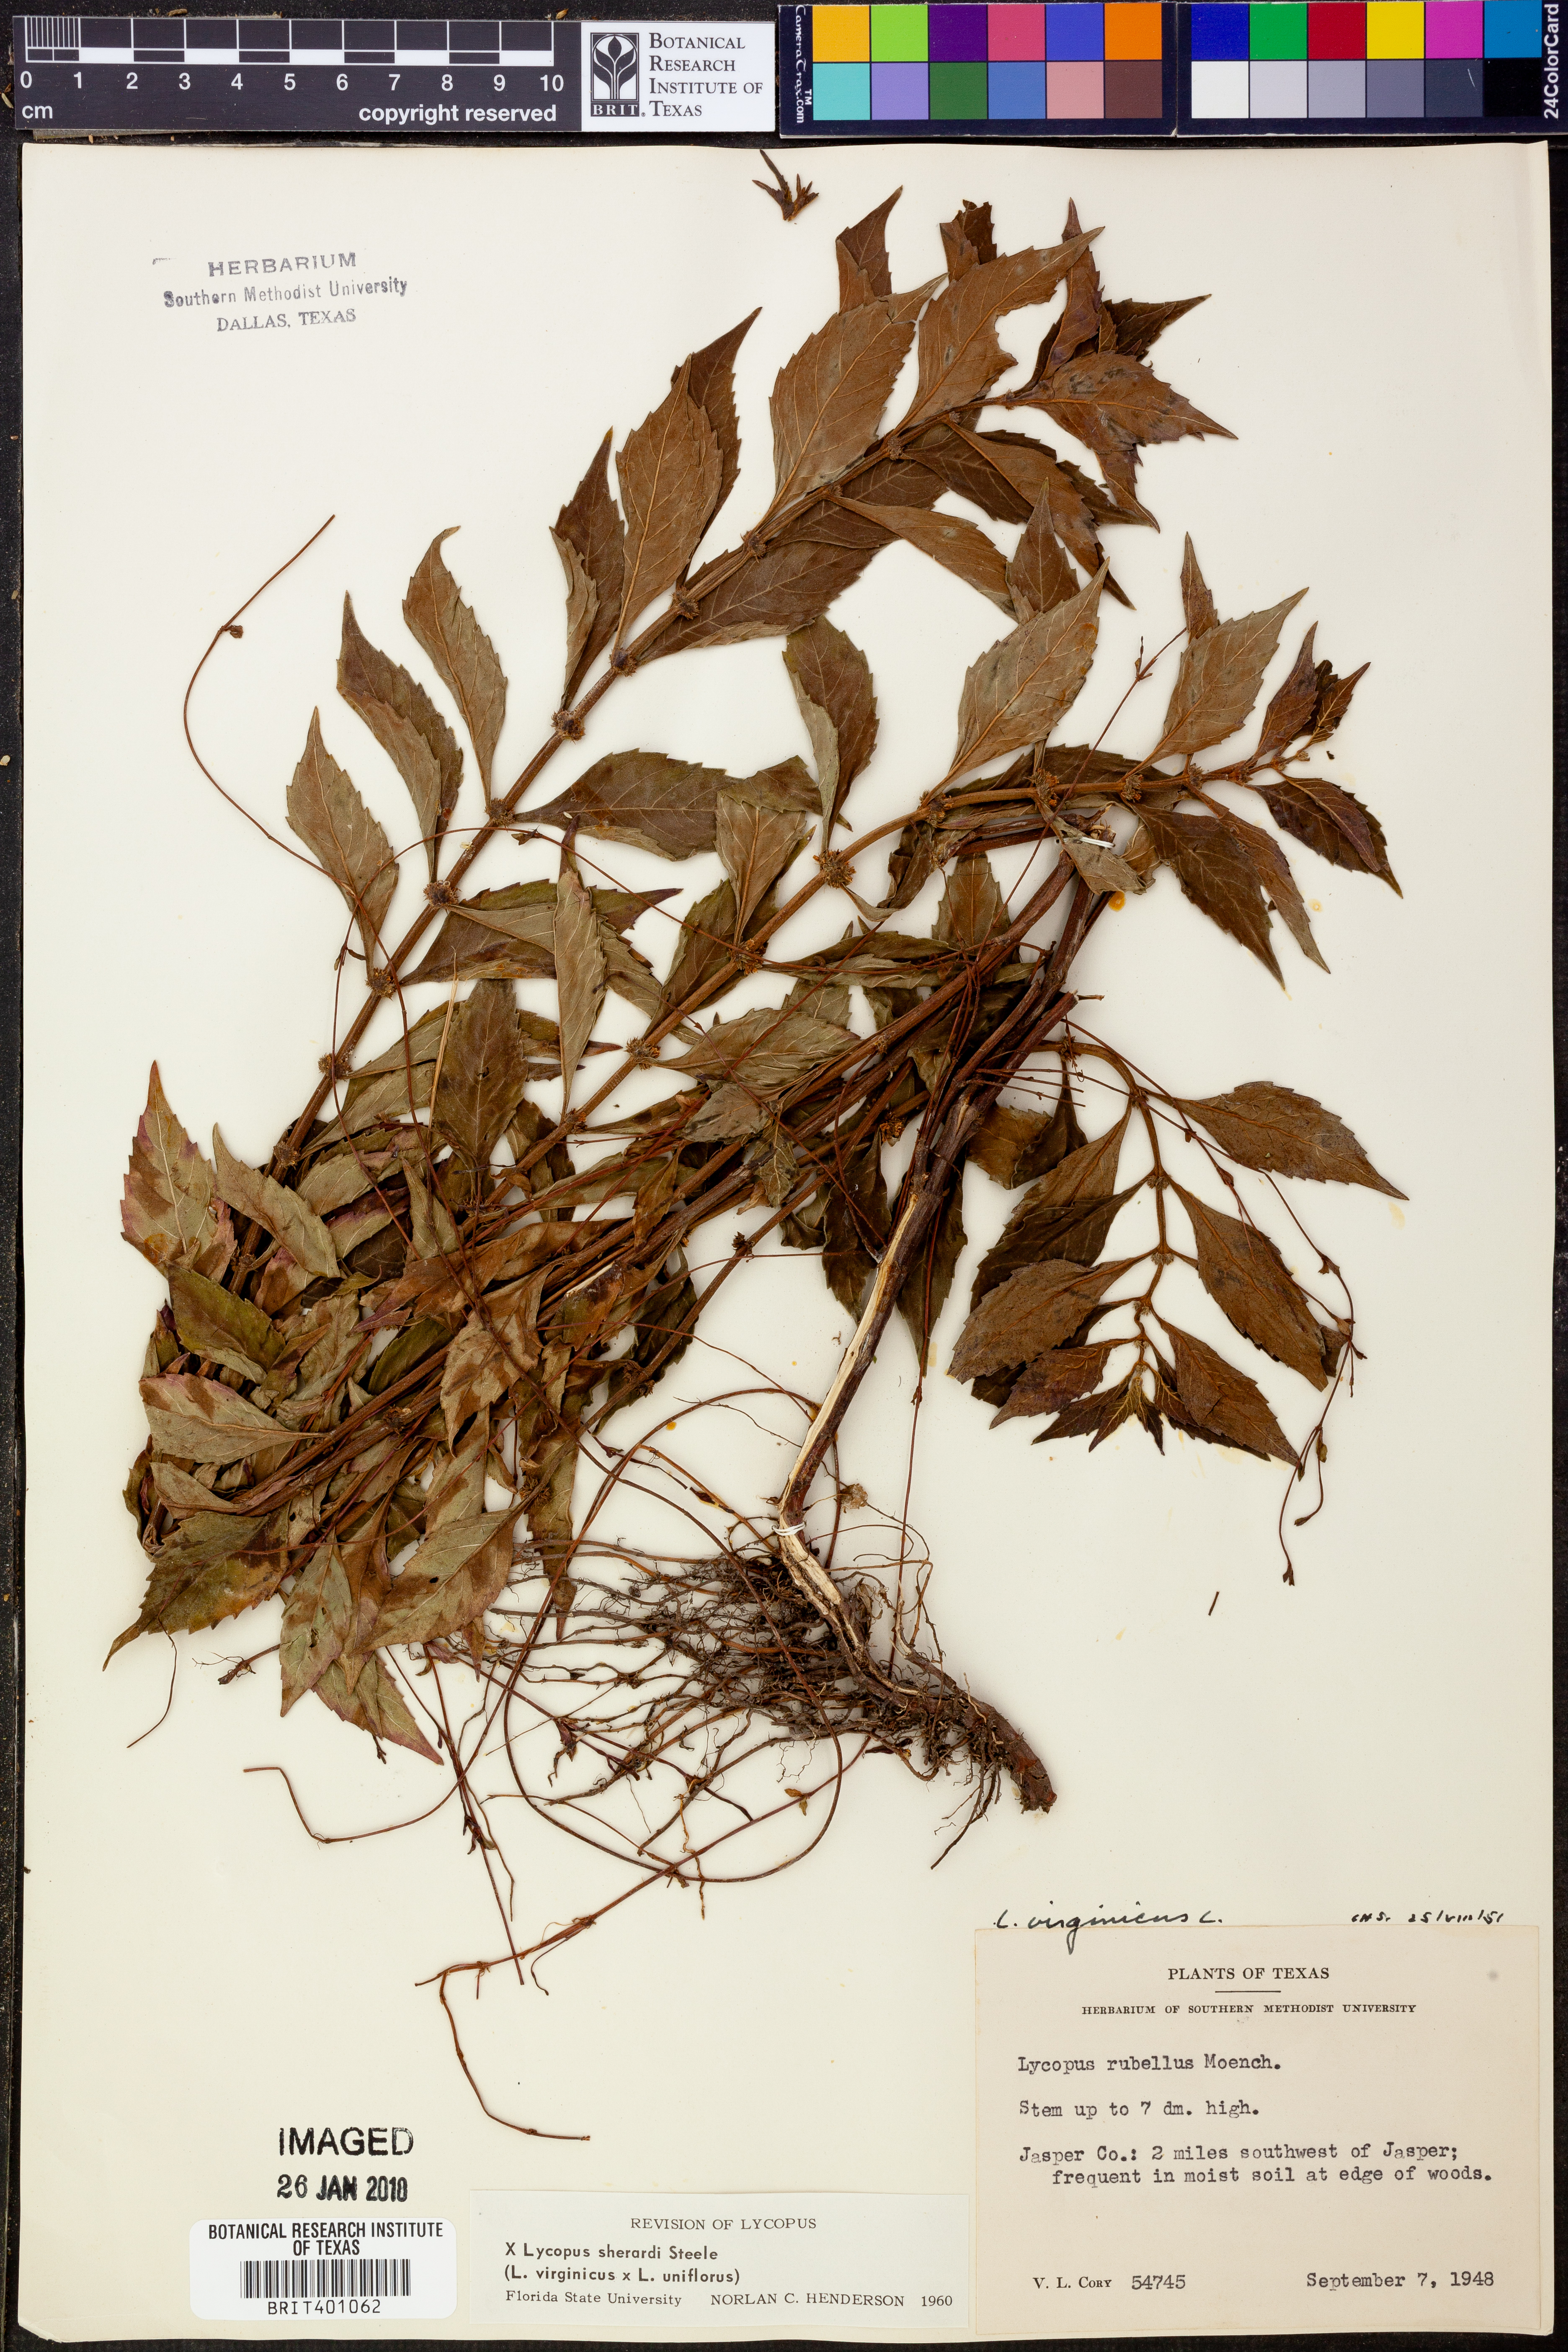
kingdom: Plantae
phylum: Tracheophyta
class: Magnoliopsida
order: Lamiales
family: Lamiaceae
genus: Lycopus
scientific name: Lycopus sherardii
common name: Sherard's water-horehound
